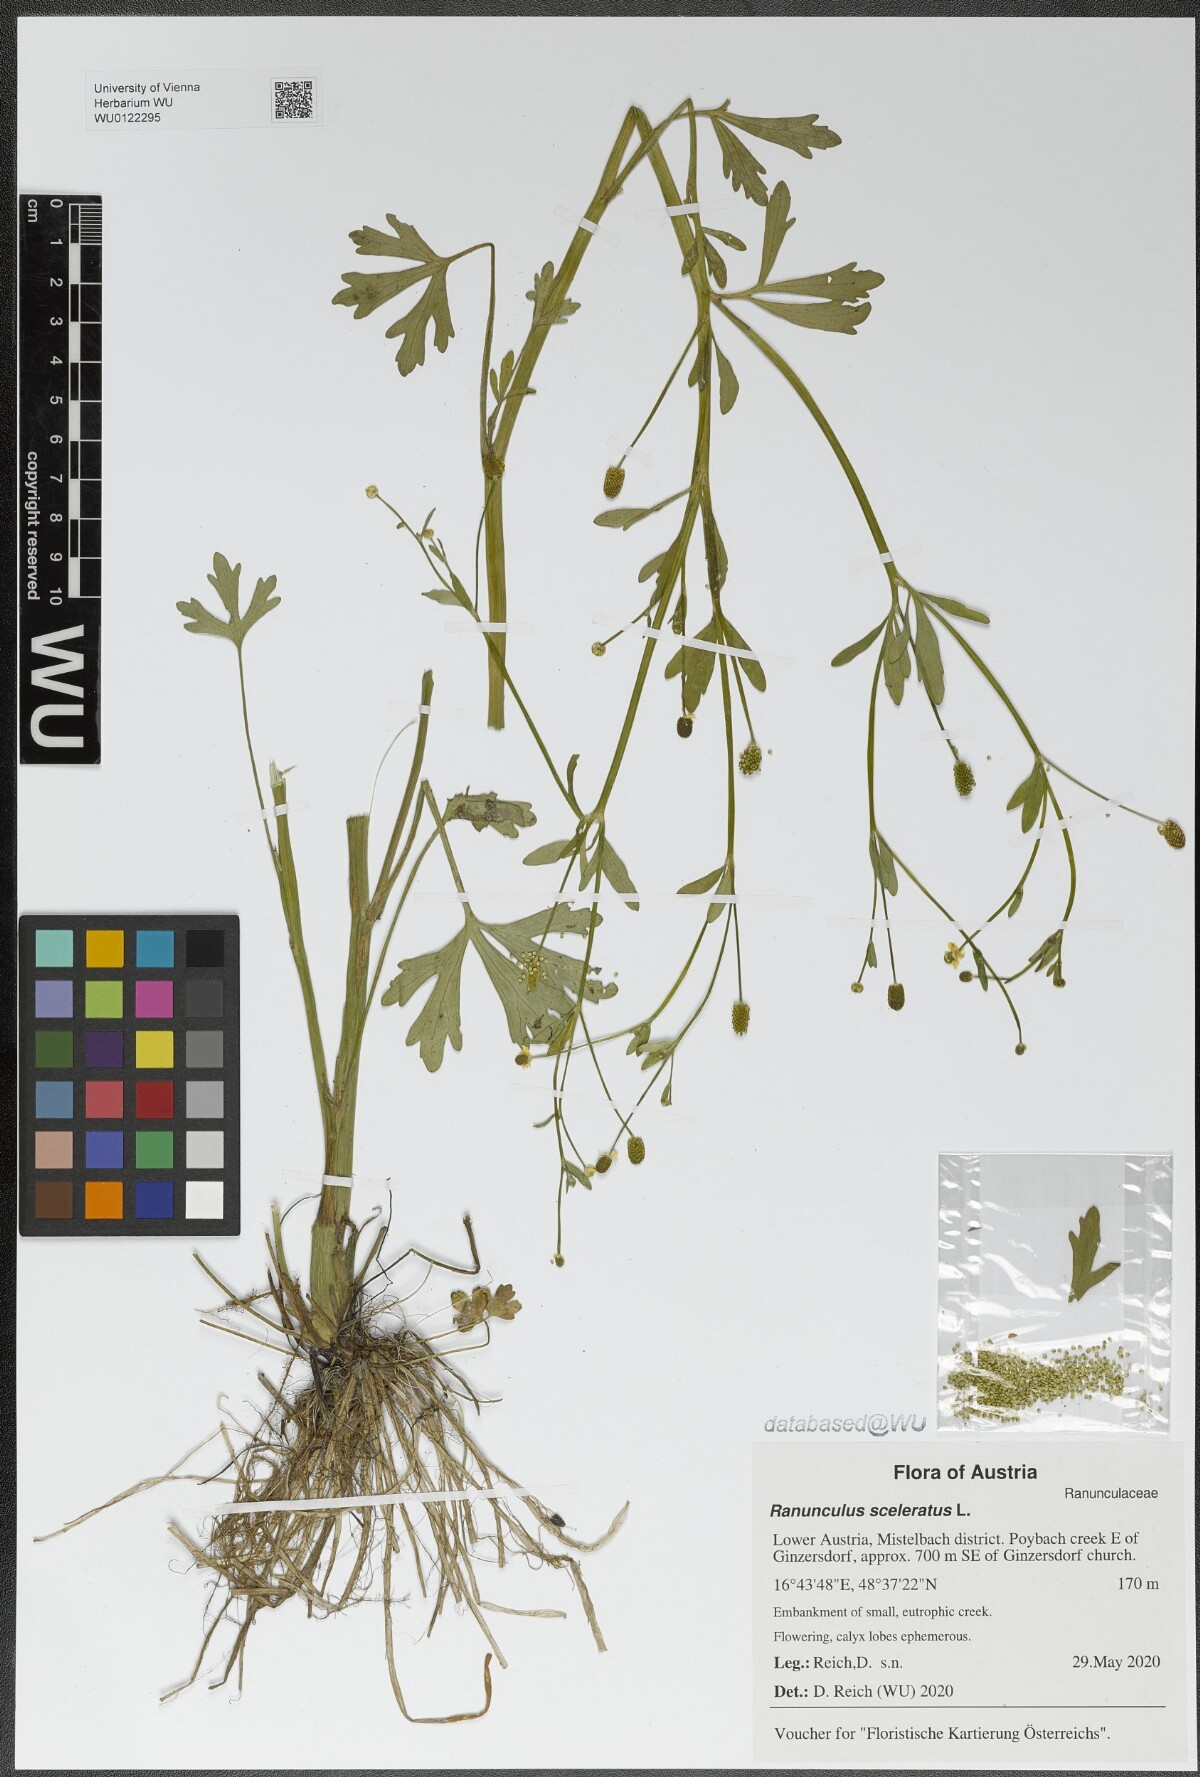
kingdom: Plantae
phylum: Tracheophyta
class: Magnoliopsida
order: Ranunculales
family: Ranunculaceae
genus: Ranunculus
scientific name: Ranunculus sceleratus
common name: Celery-leaved buttercup
